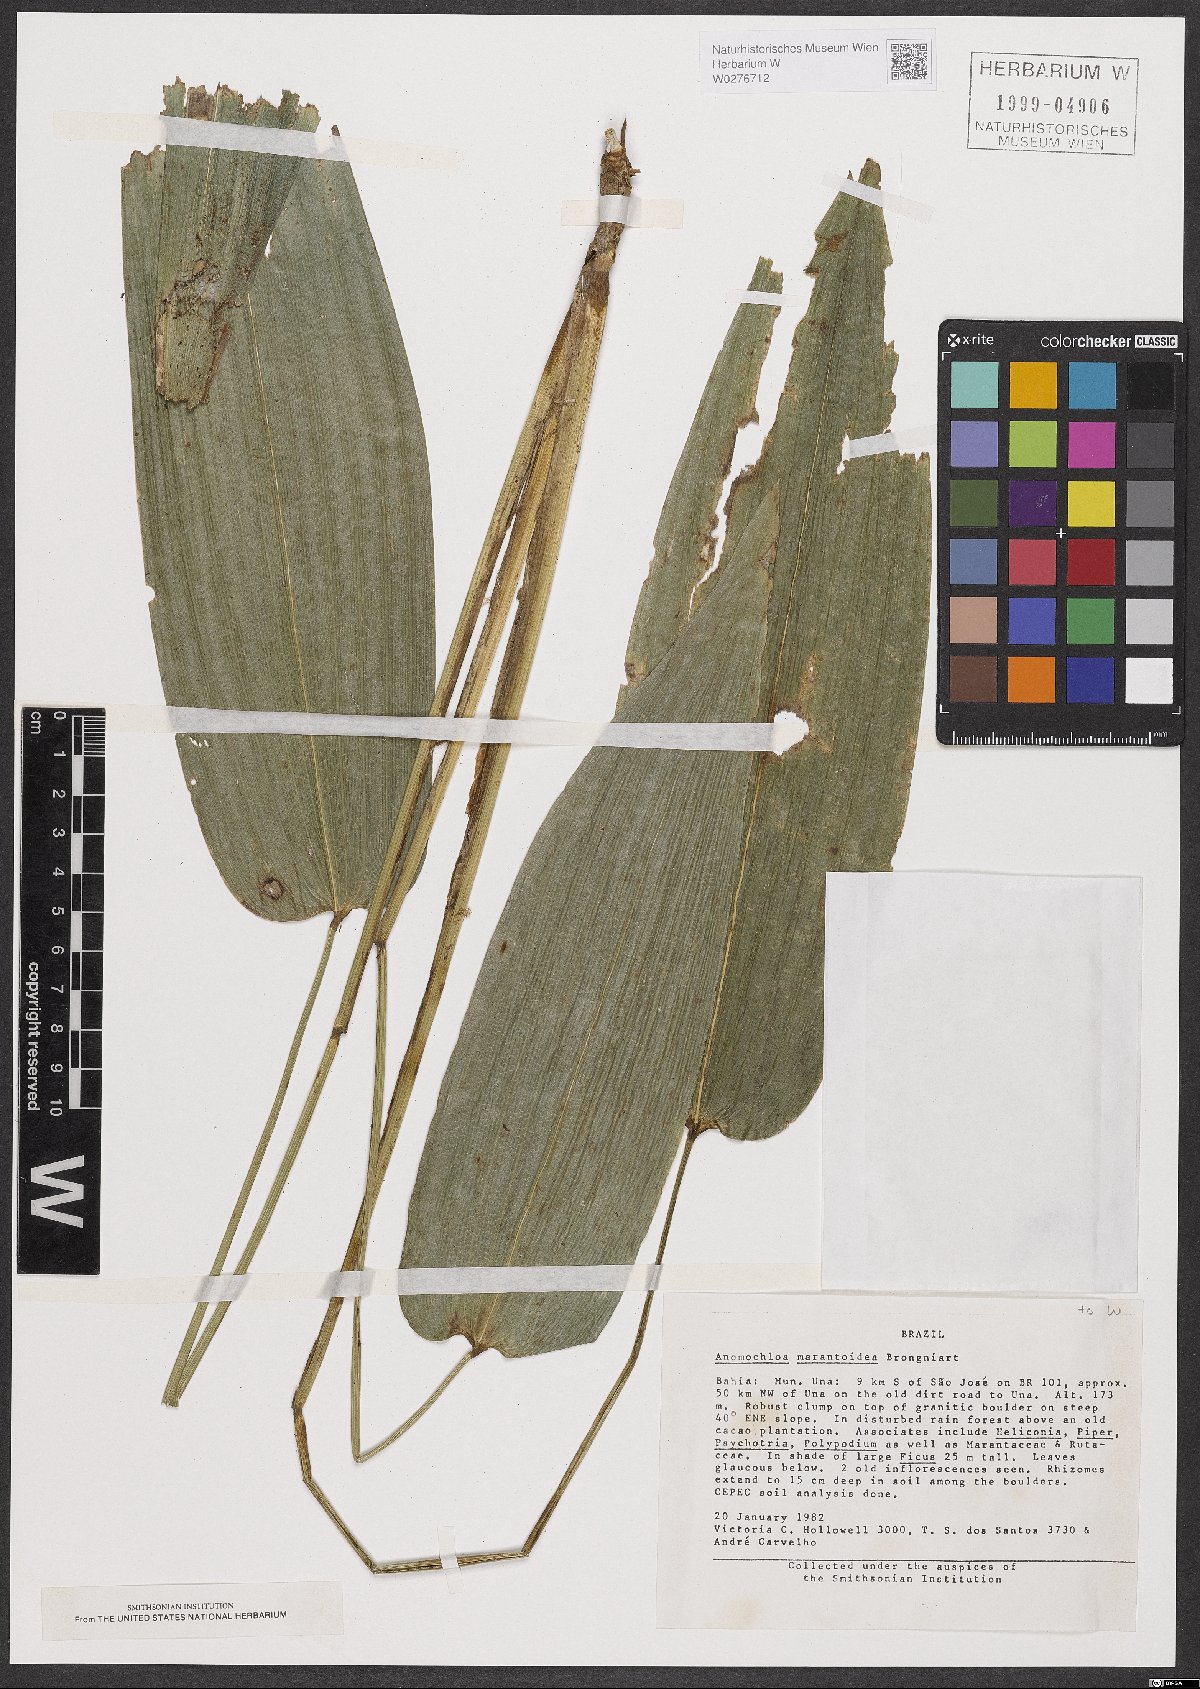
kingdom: Plantae
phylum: Tracheophyta
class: Liliopsida
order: Poales
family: Poaceae
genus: Anomochloa
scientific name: Anomochloa marantoidea
